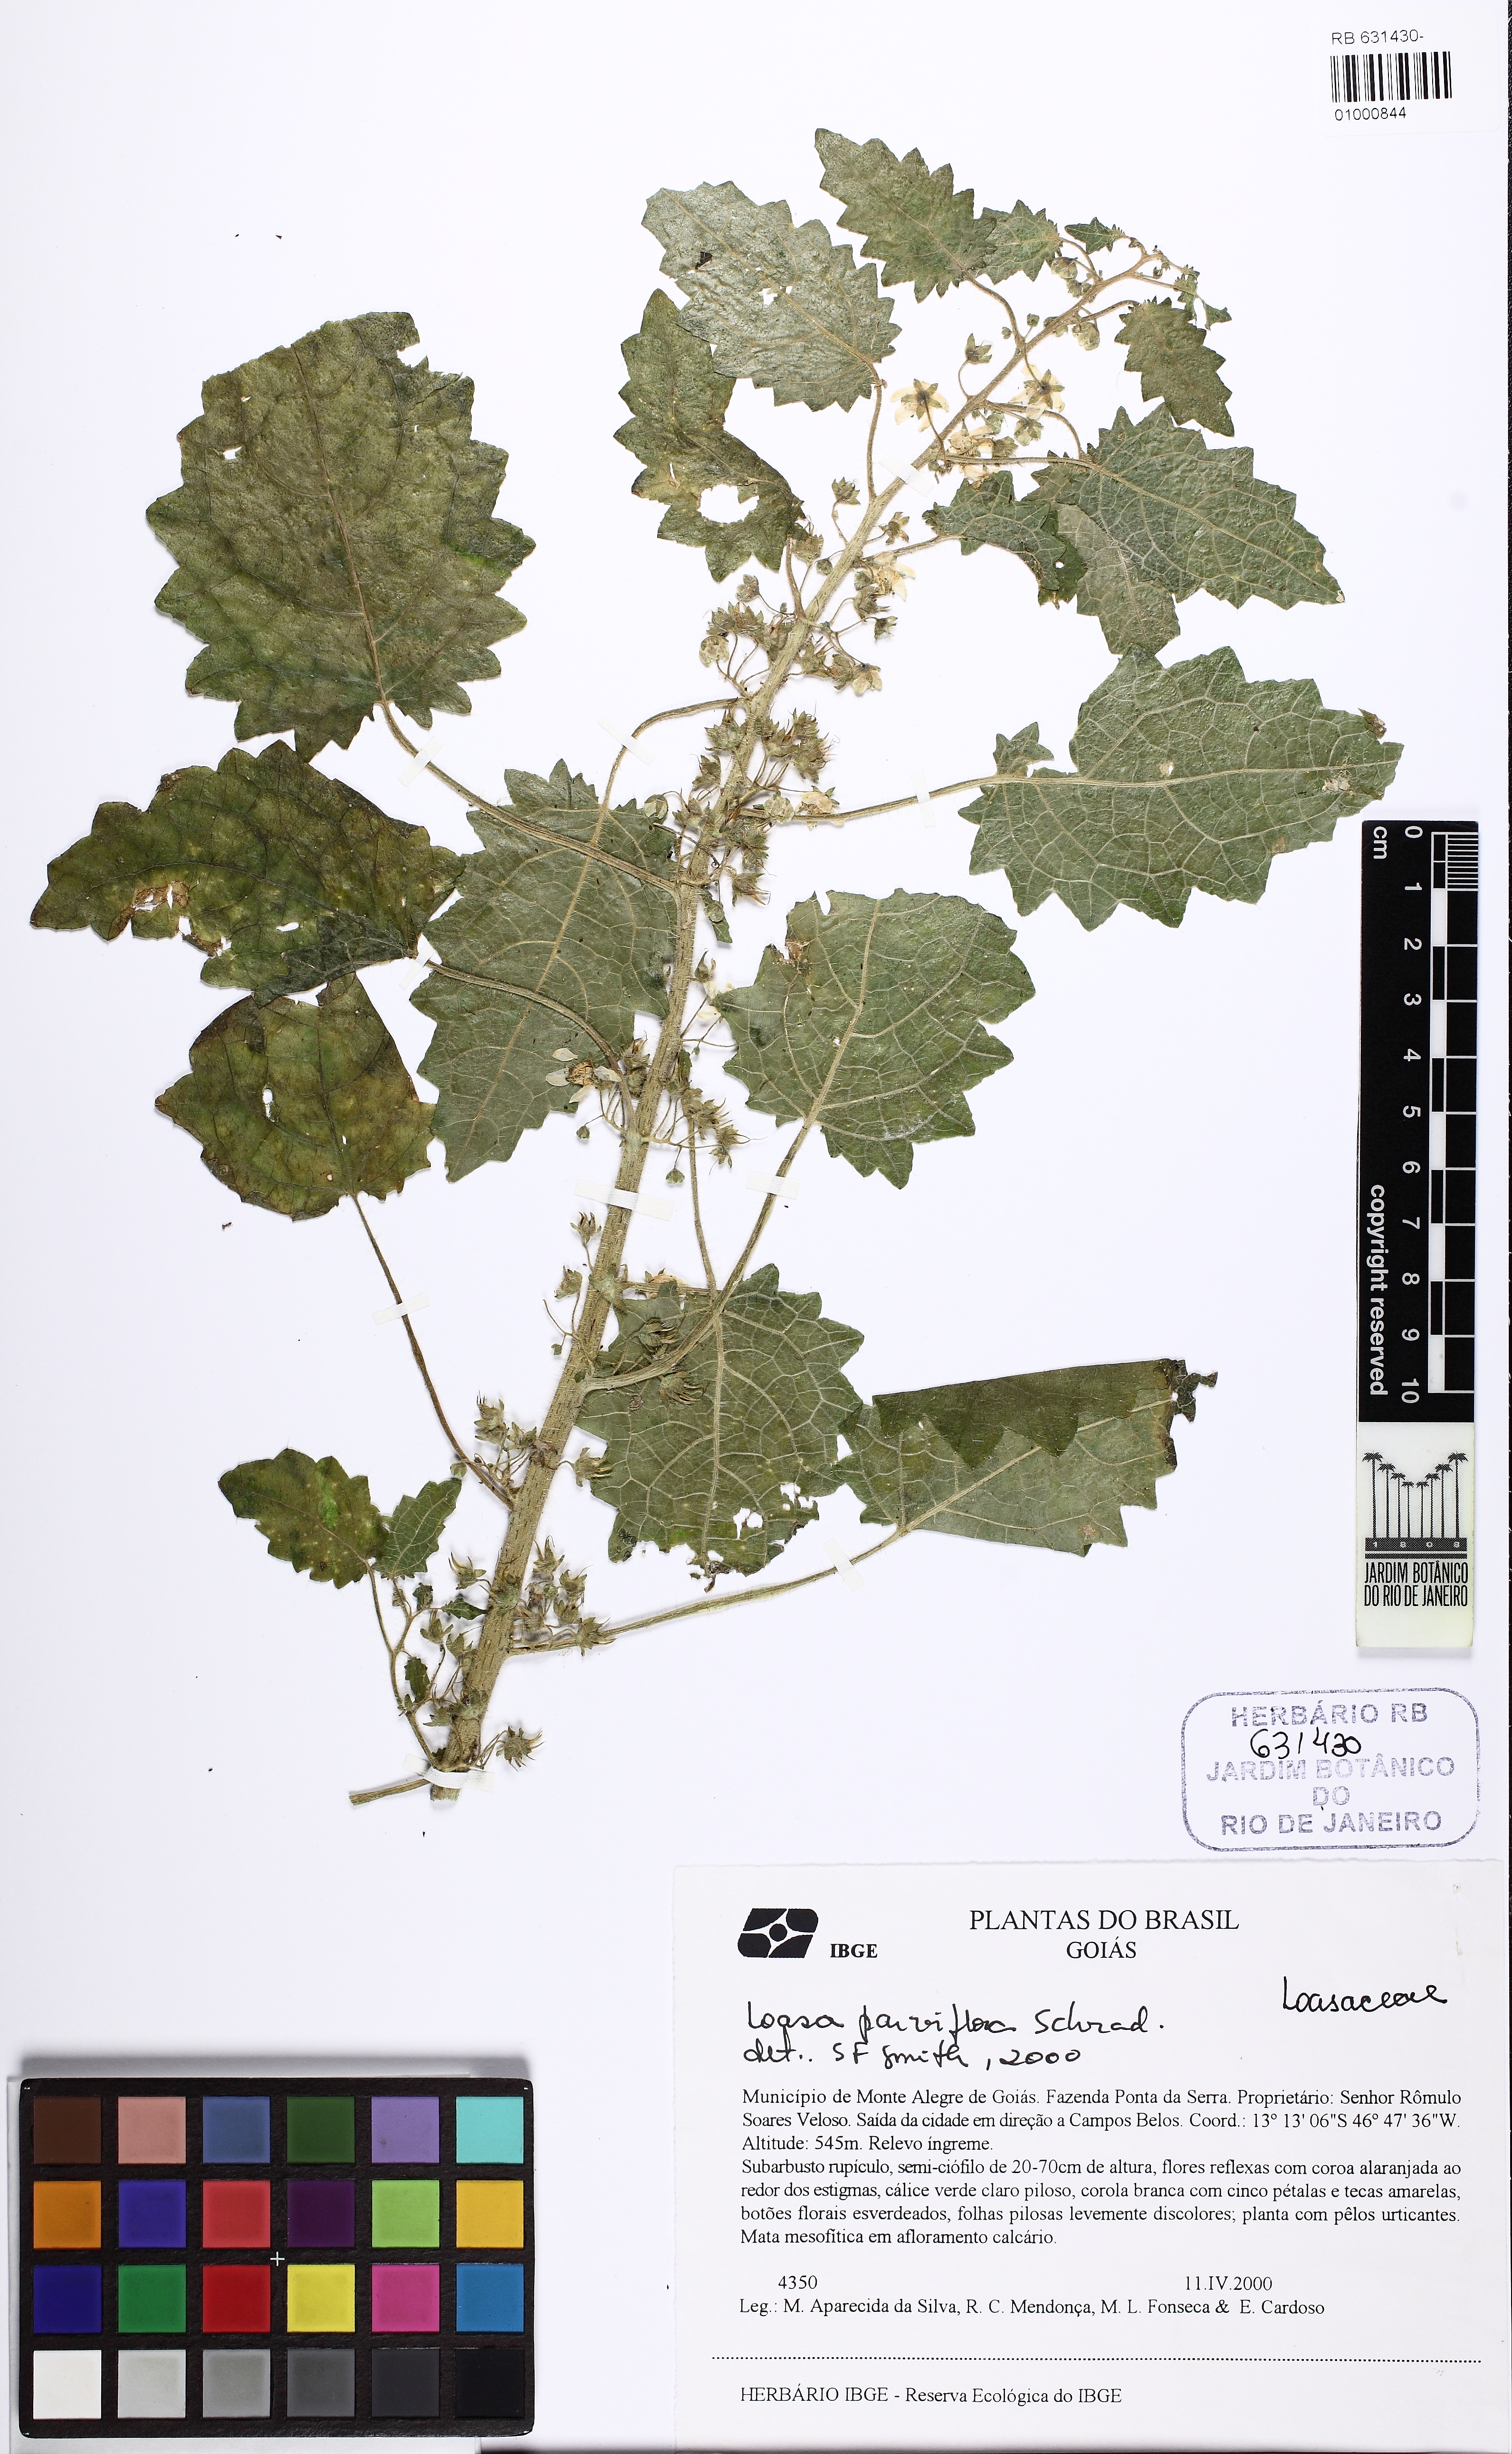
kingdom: Plantae
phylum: Tracheophyta
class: Magnoliopsida
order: Cornales
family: Loasaceae
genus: Aosa
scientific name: Aosa rostrata
